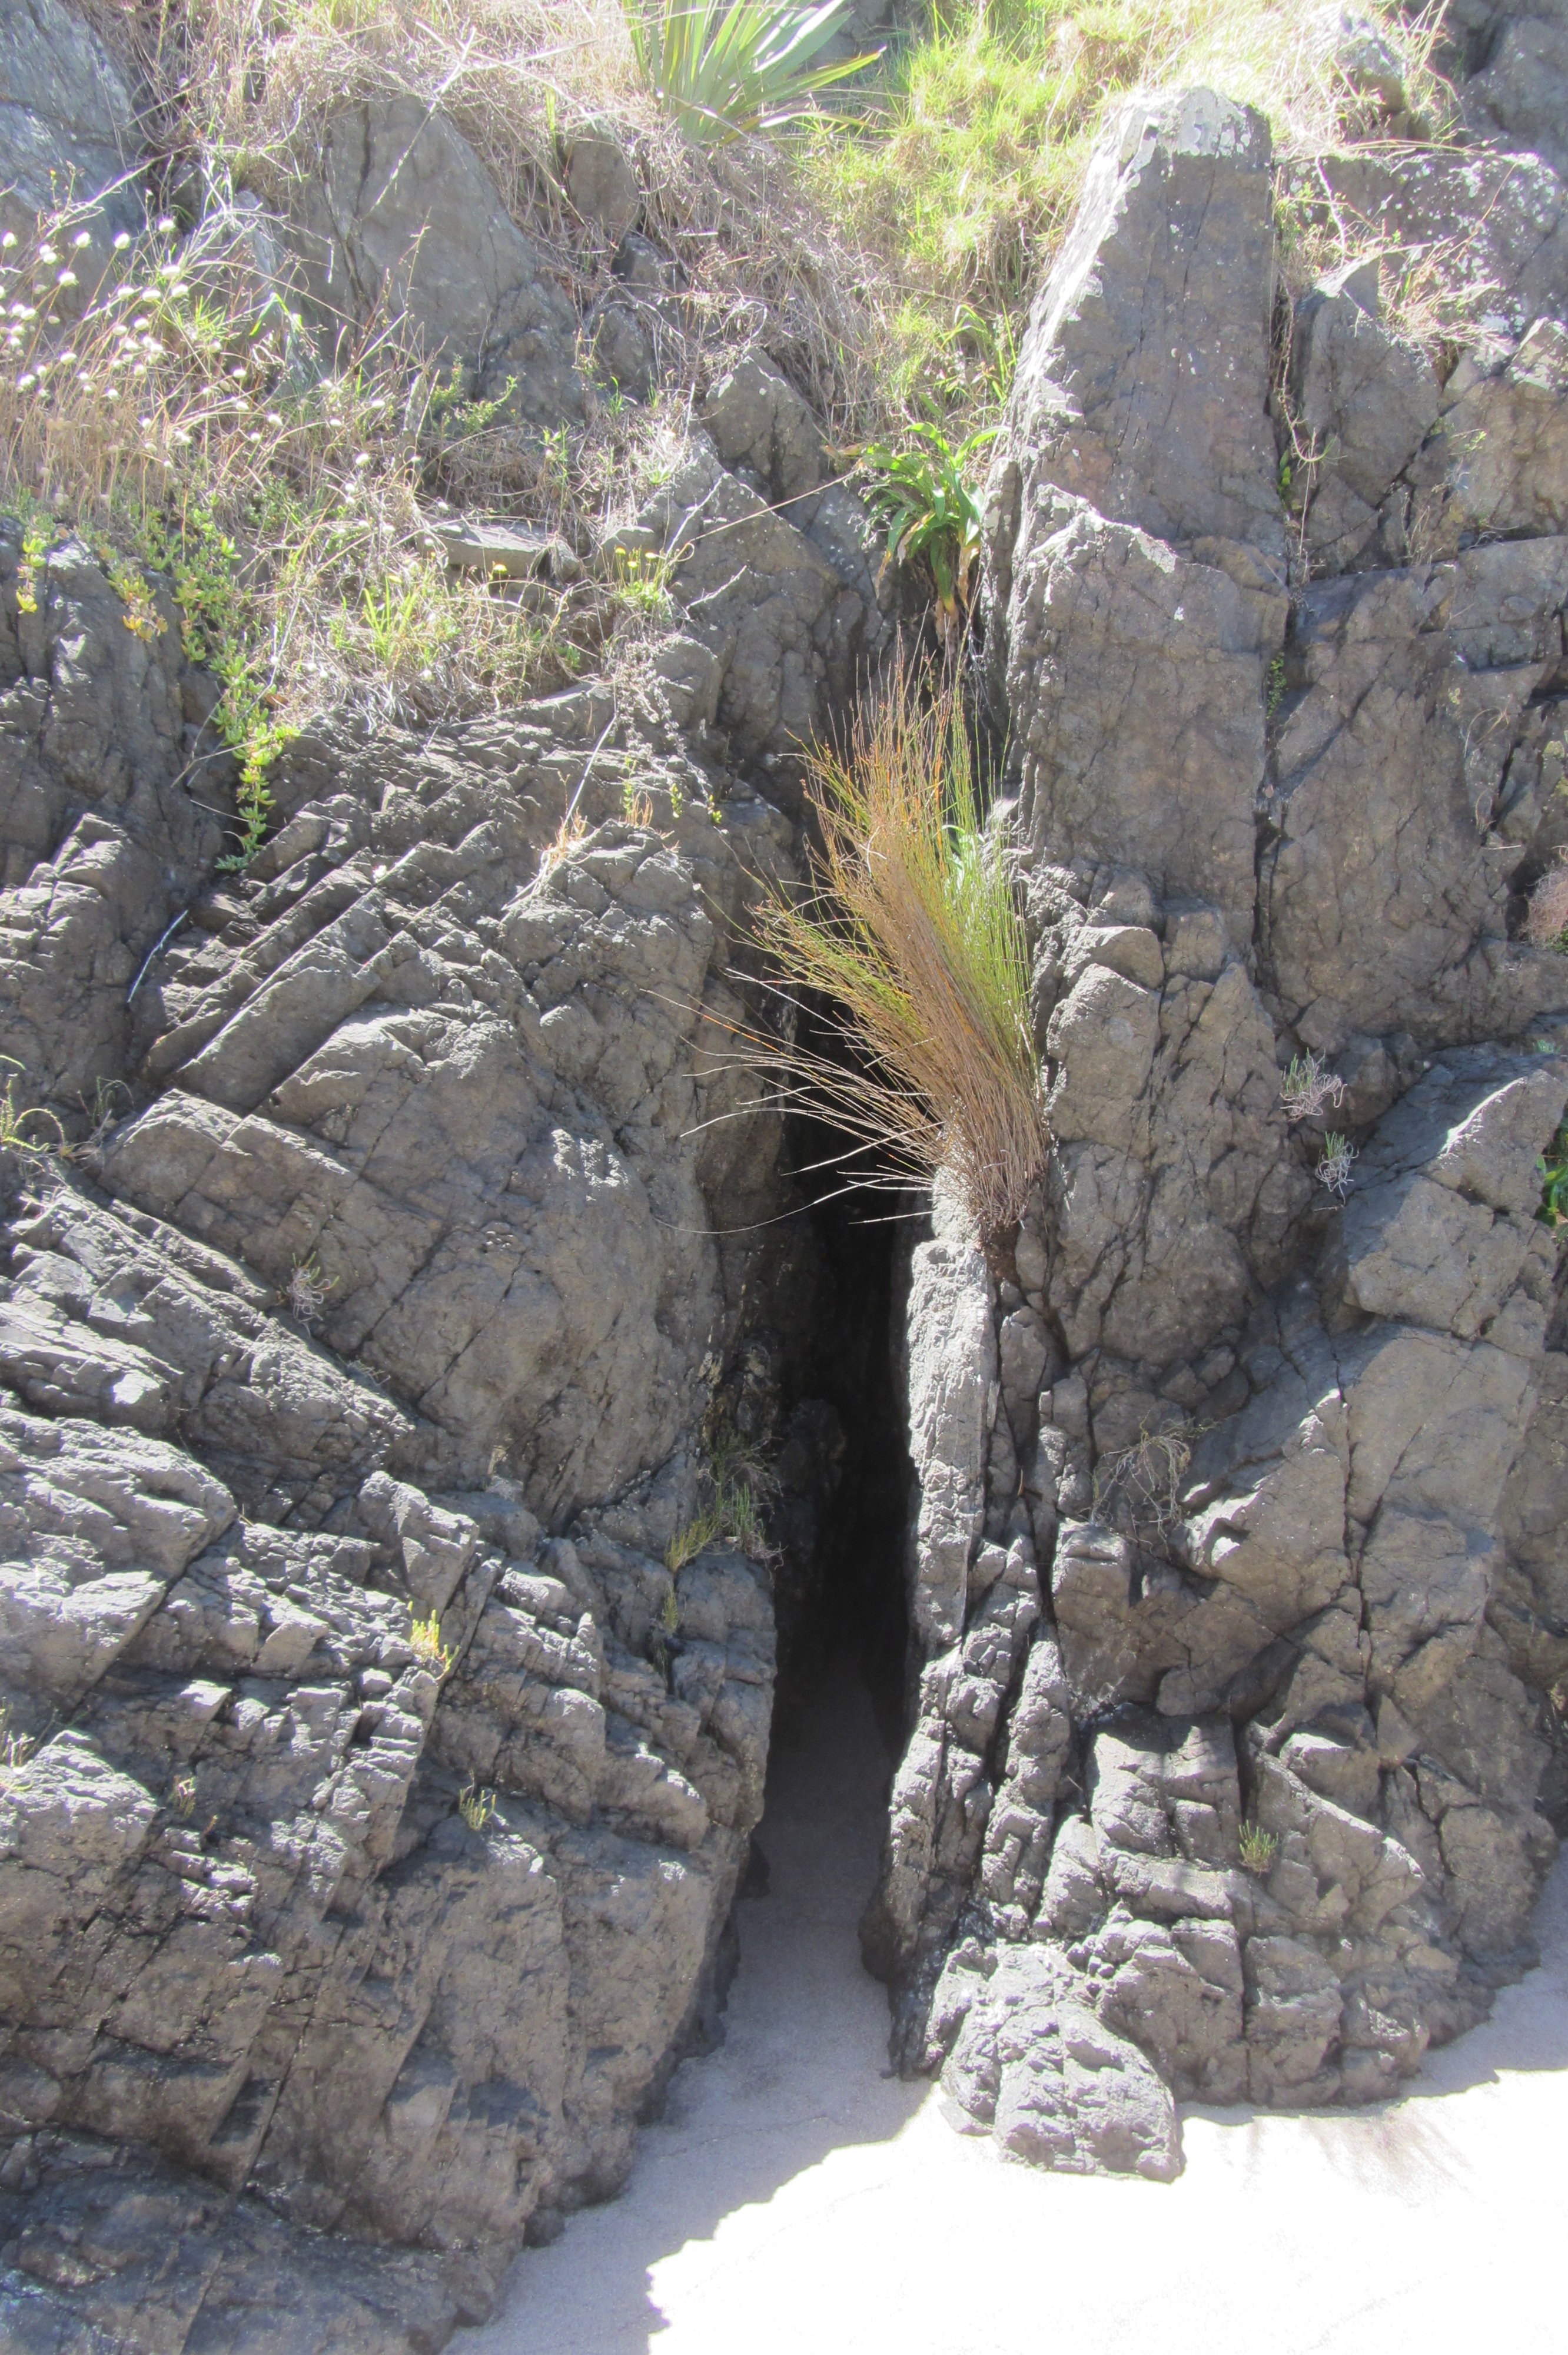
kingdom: Plantae
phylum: Tracheophyta
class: Liliopsida
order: Poales
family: Restionaceae
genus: Apodasmia
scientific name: Apodasmia similis
